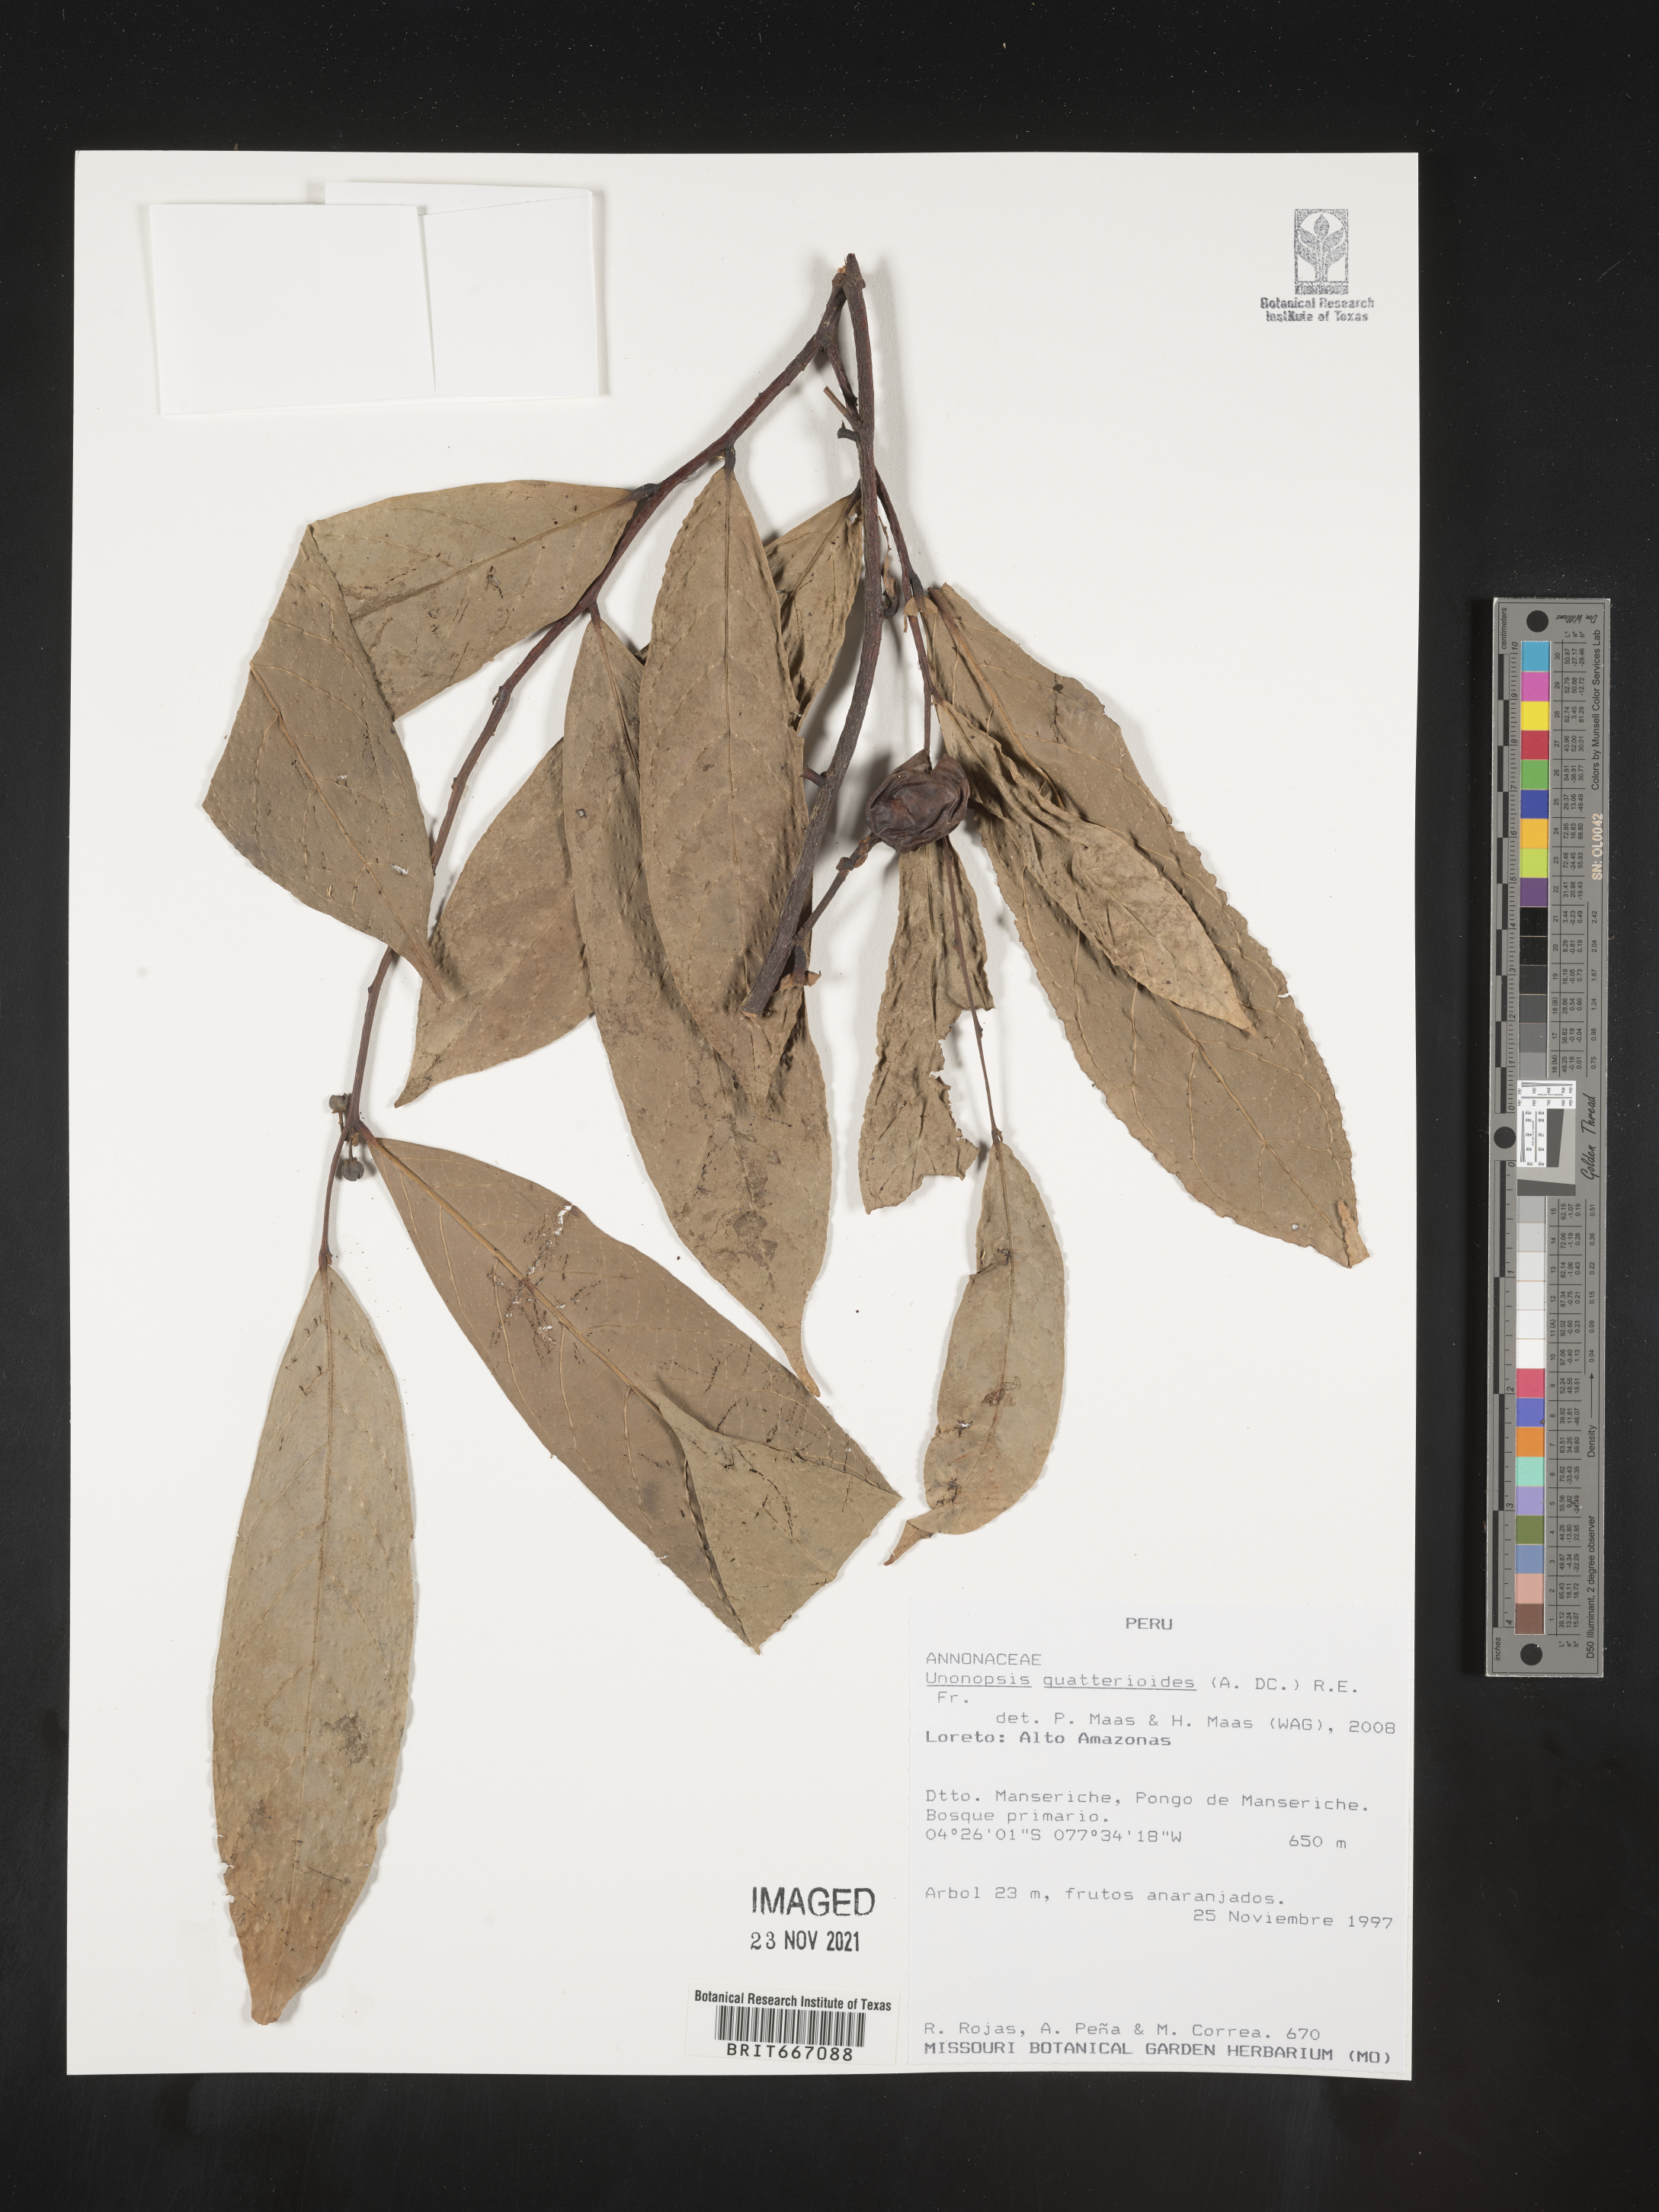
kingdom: Plantae
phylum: Tracheophyta
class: Magnoliopsida
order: Magnoliales
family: Annonaceae
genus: Unonopsis
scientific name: Unonopsis
